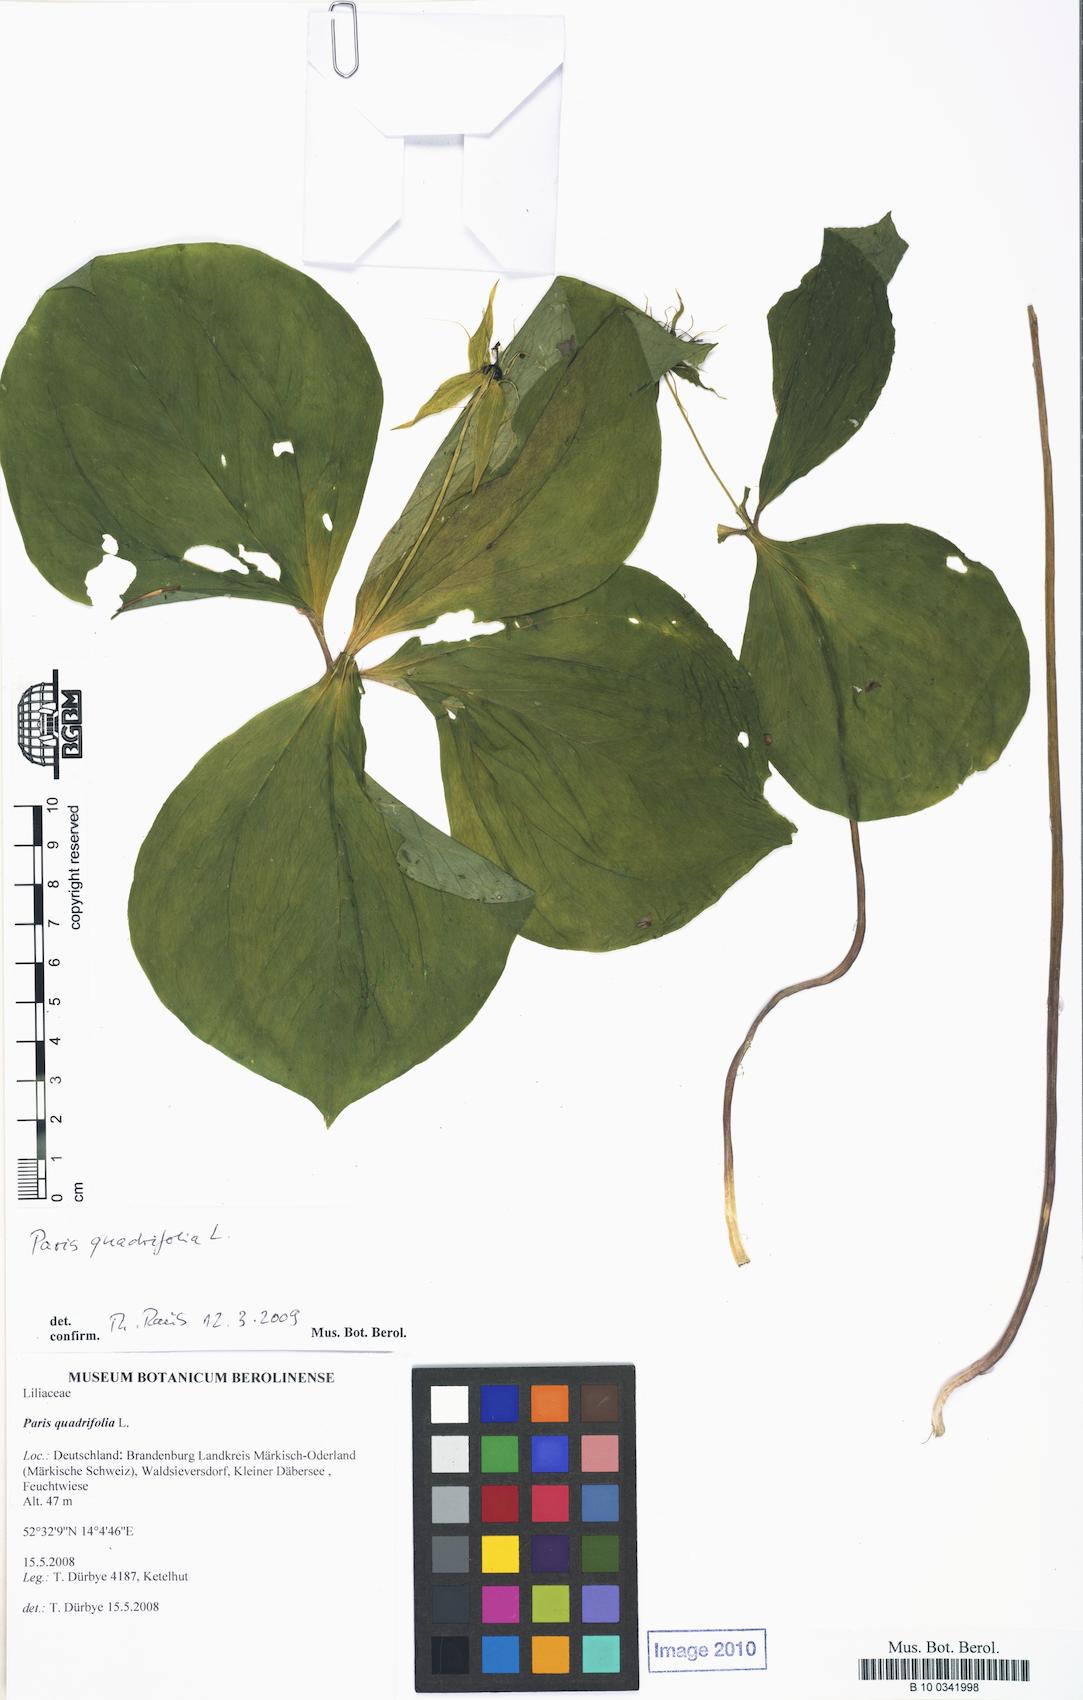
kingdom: Plantae
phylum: Tracheophyta
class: Liliopsida
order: Liliales
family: Melanthiaceae
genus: Paris
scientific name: Paris quadrifolia
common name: Herb-paris
